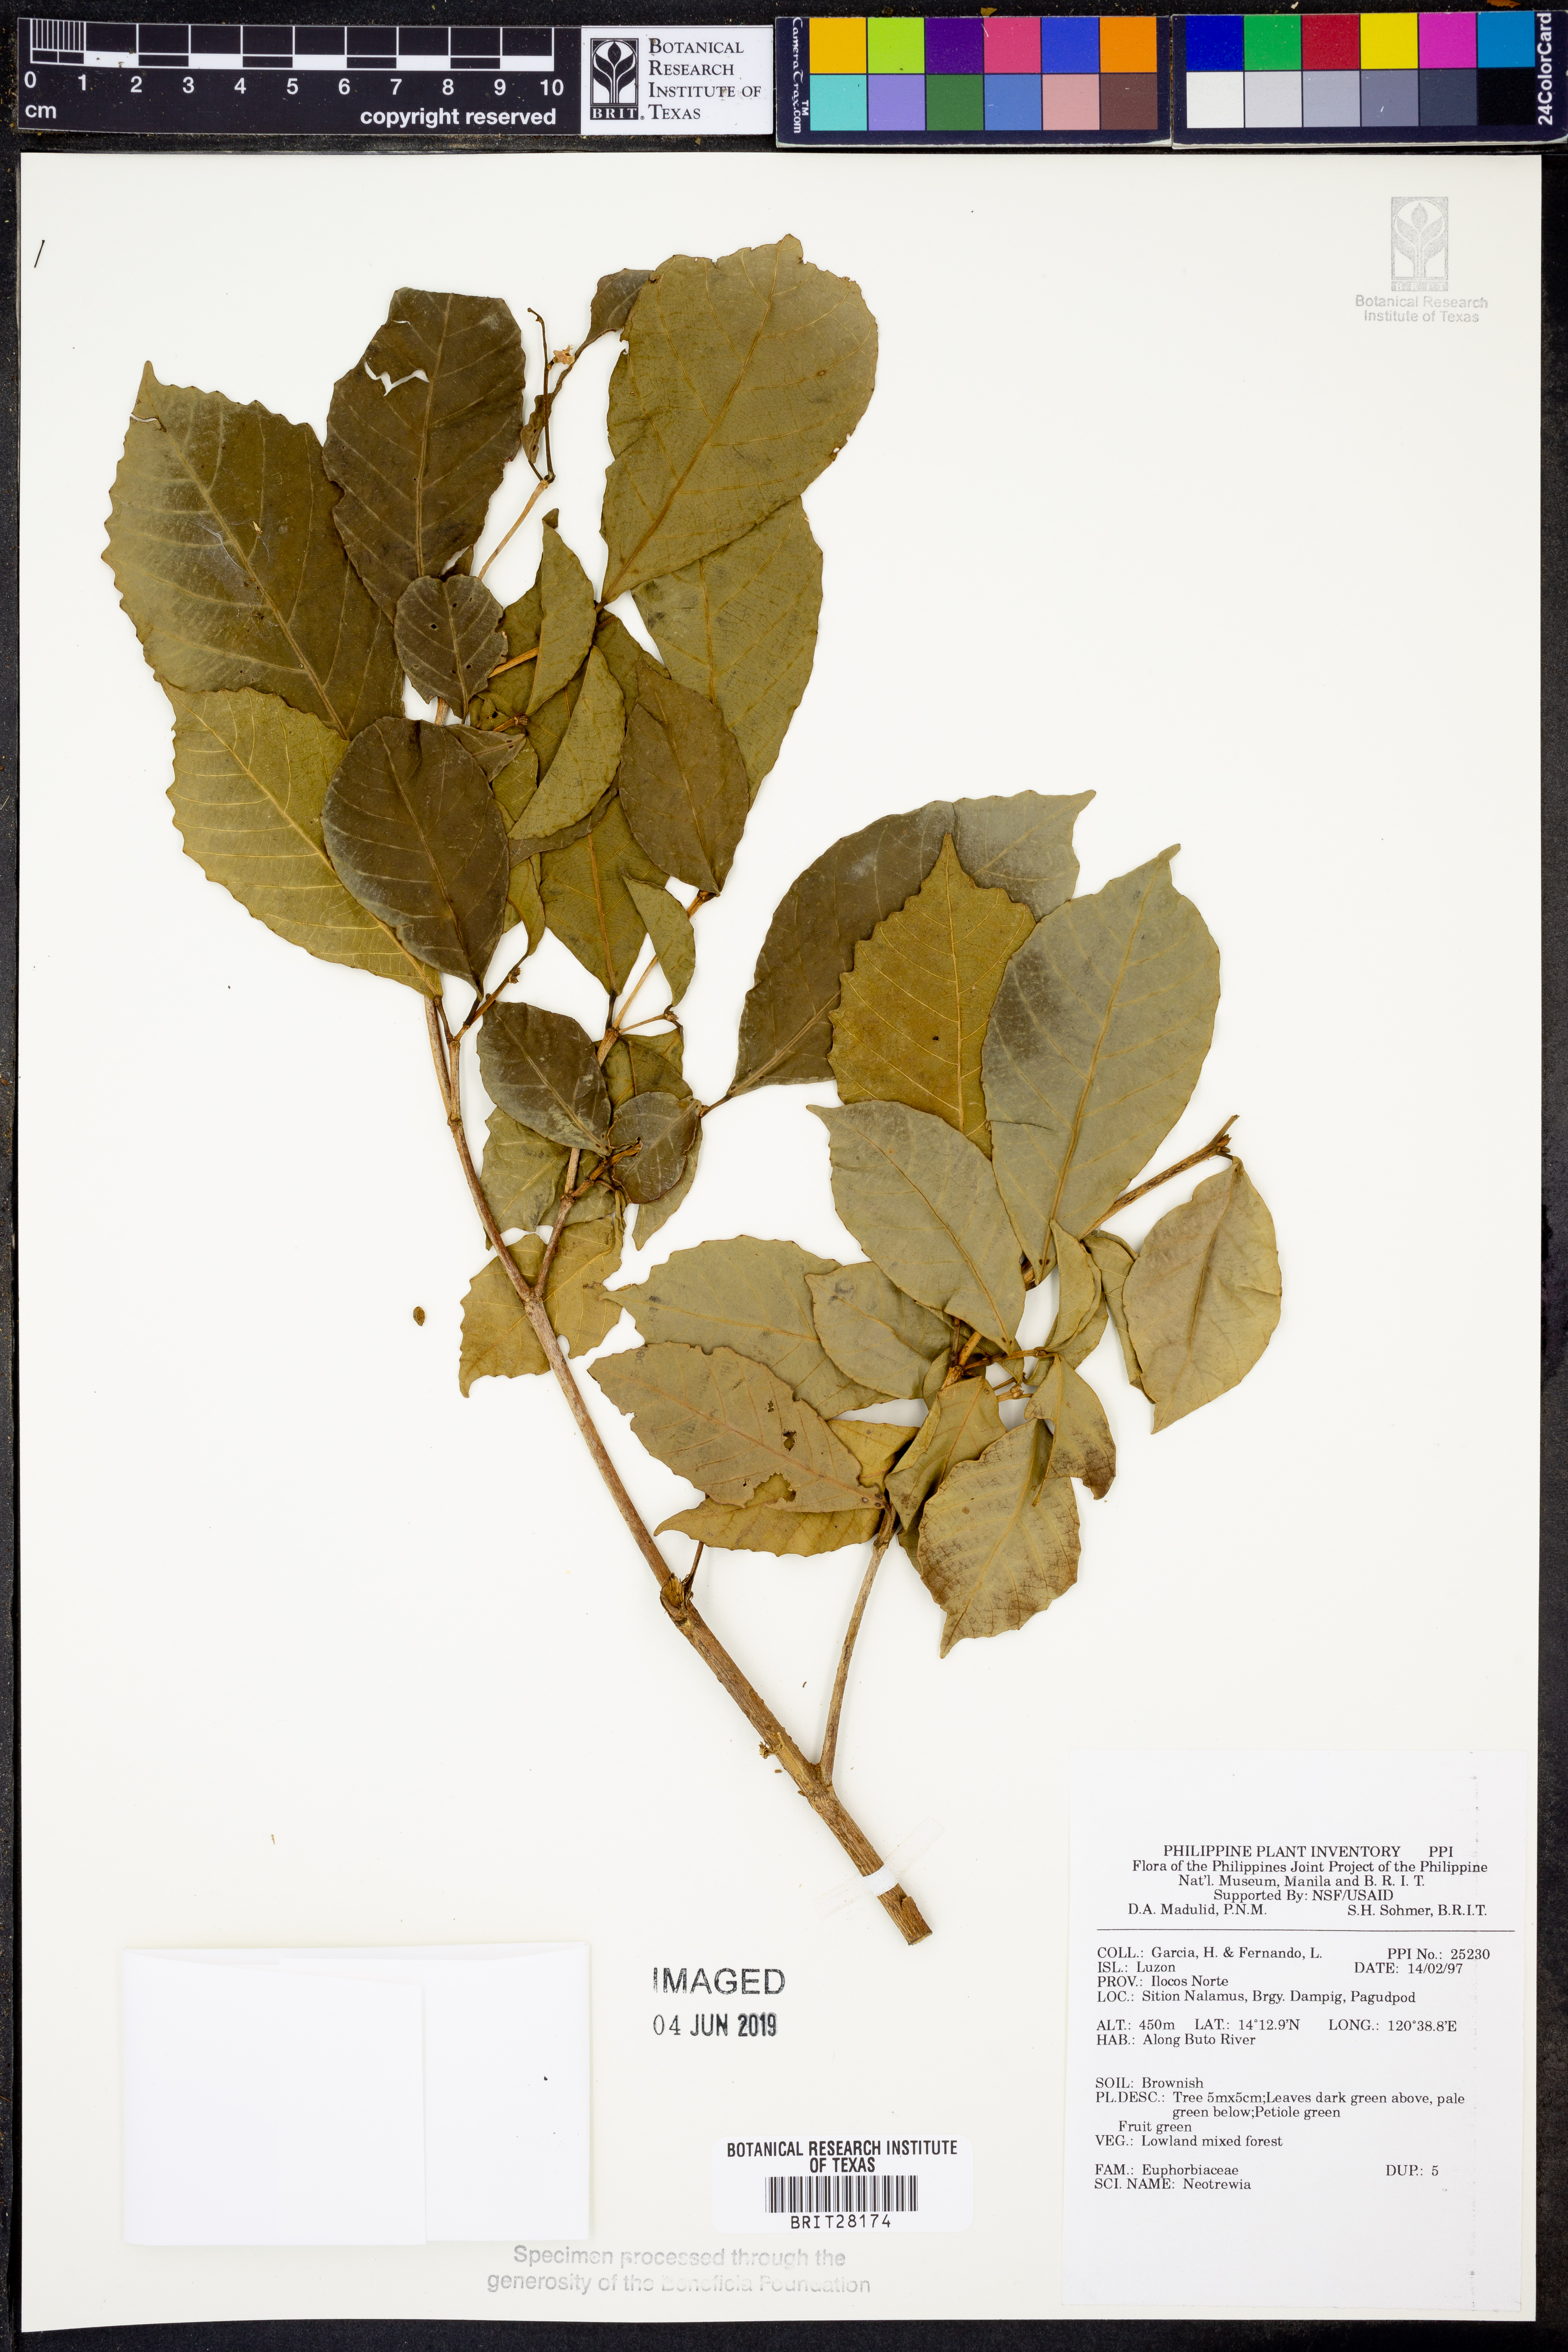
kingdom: Plantae
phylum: Tracheophyta
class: Magnoliopsida
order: Malpighiales
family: Euphorbiaceae
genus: Mallotus
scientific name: Mallotus
